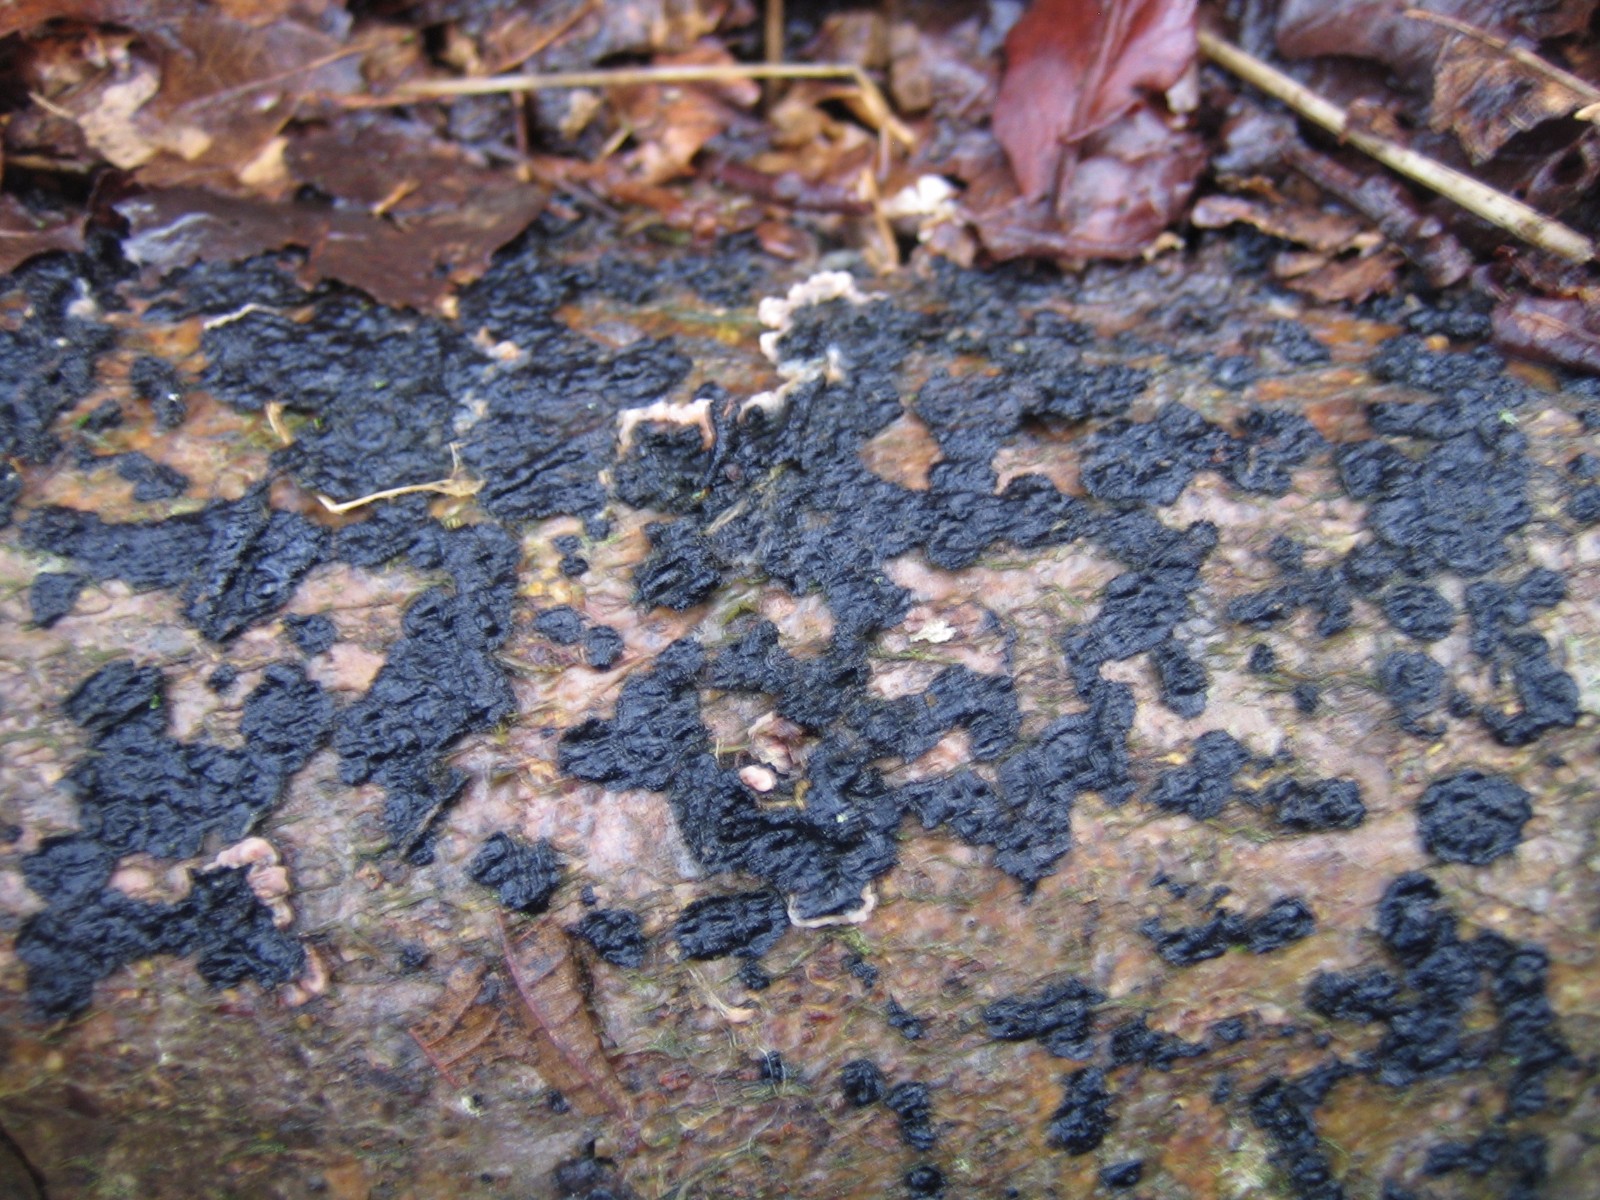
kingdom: Fungi
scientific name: Fungi
